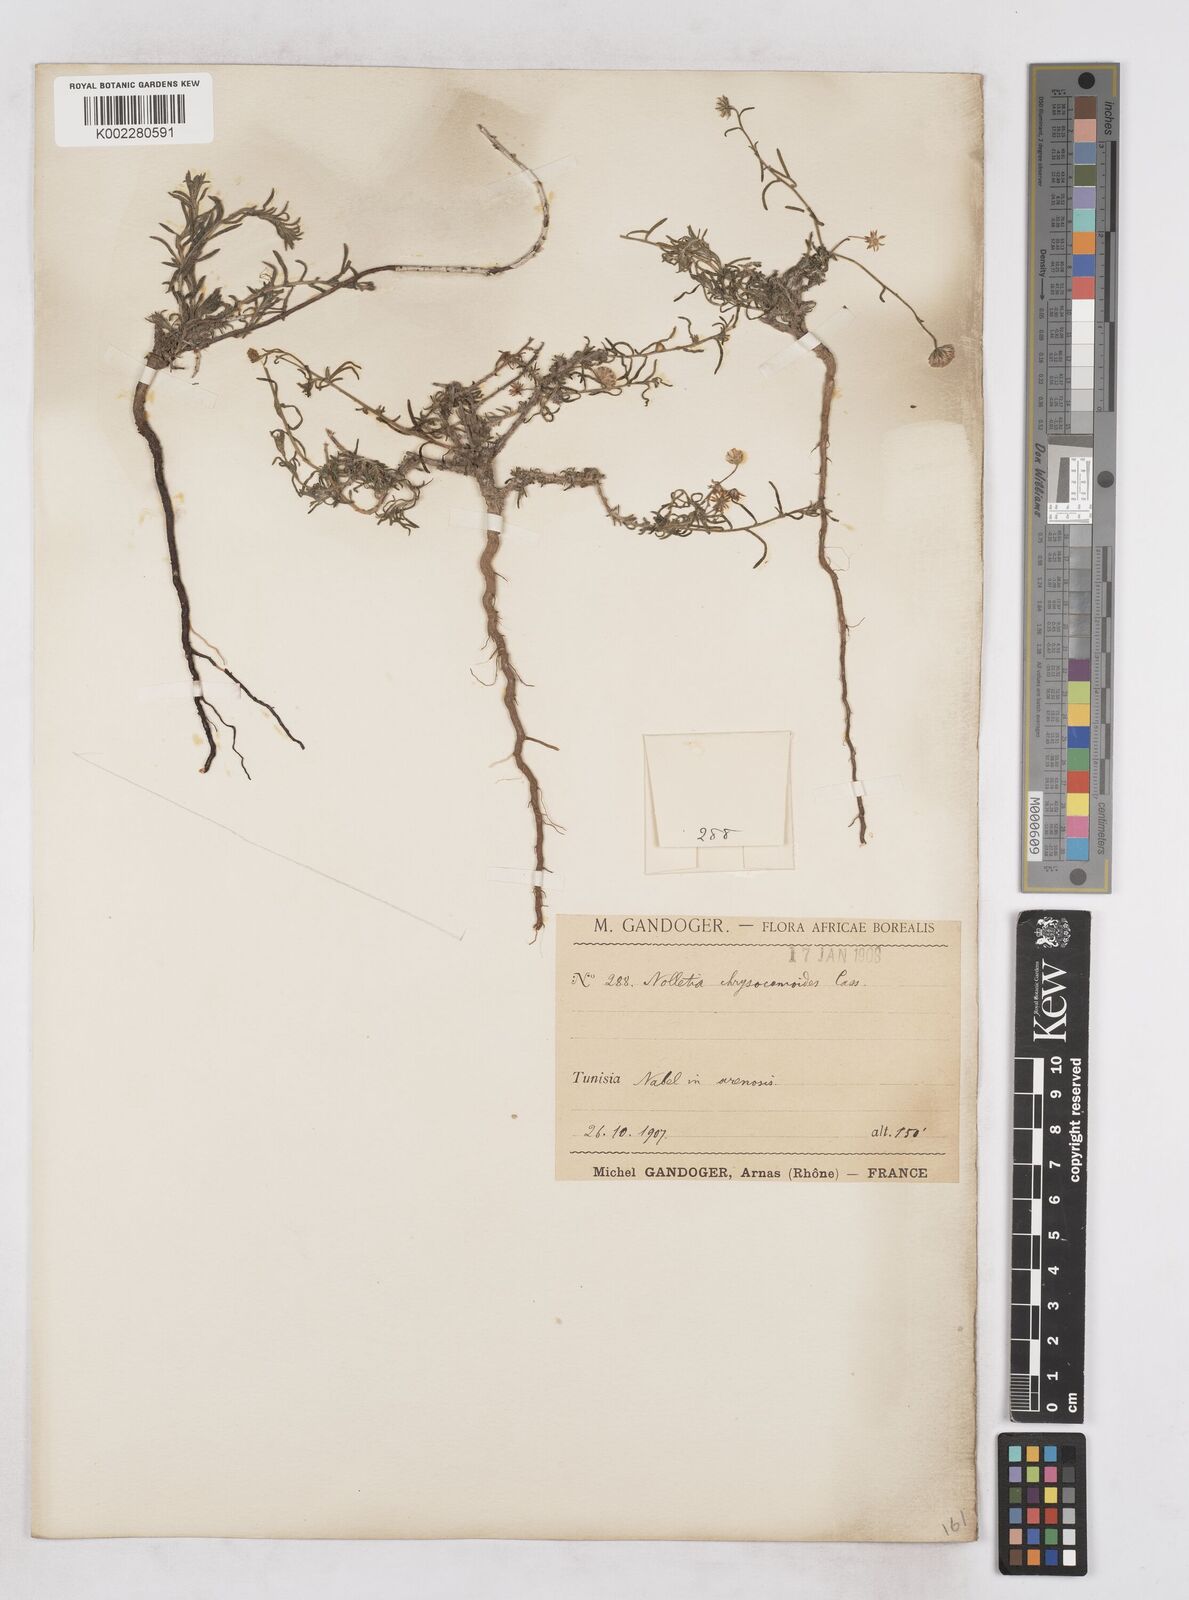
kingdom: Plantae
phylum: Tracheophyta
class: Magnoliopsida
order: Asterales
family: Asteraceae
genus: Nolletia
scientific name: Nolletia chrysocomoides
